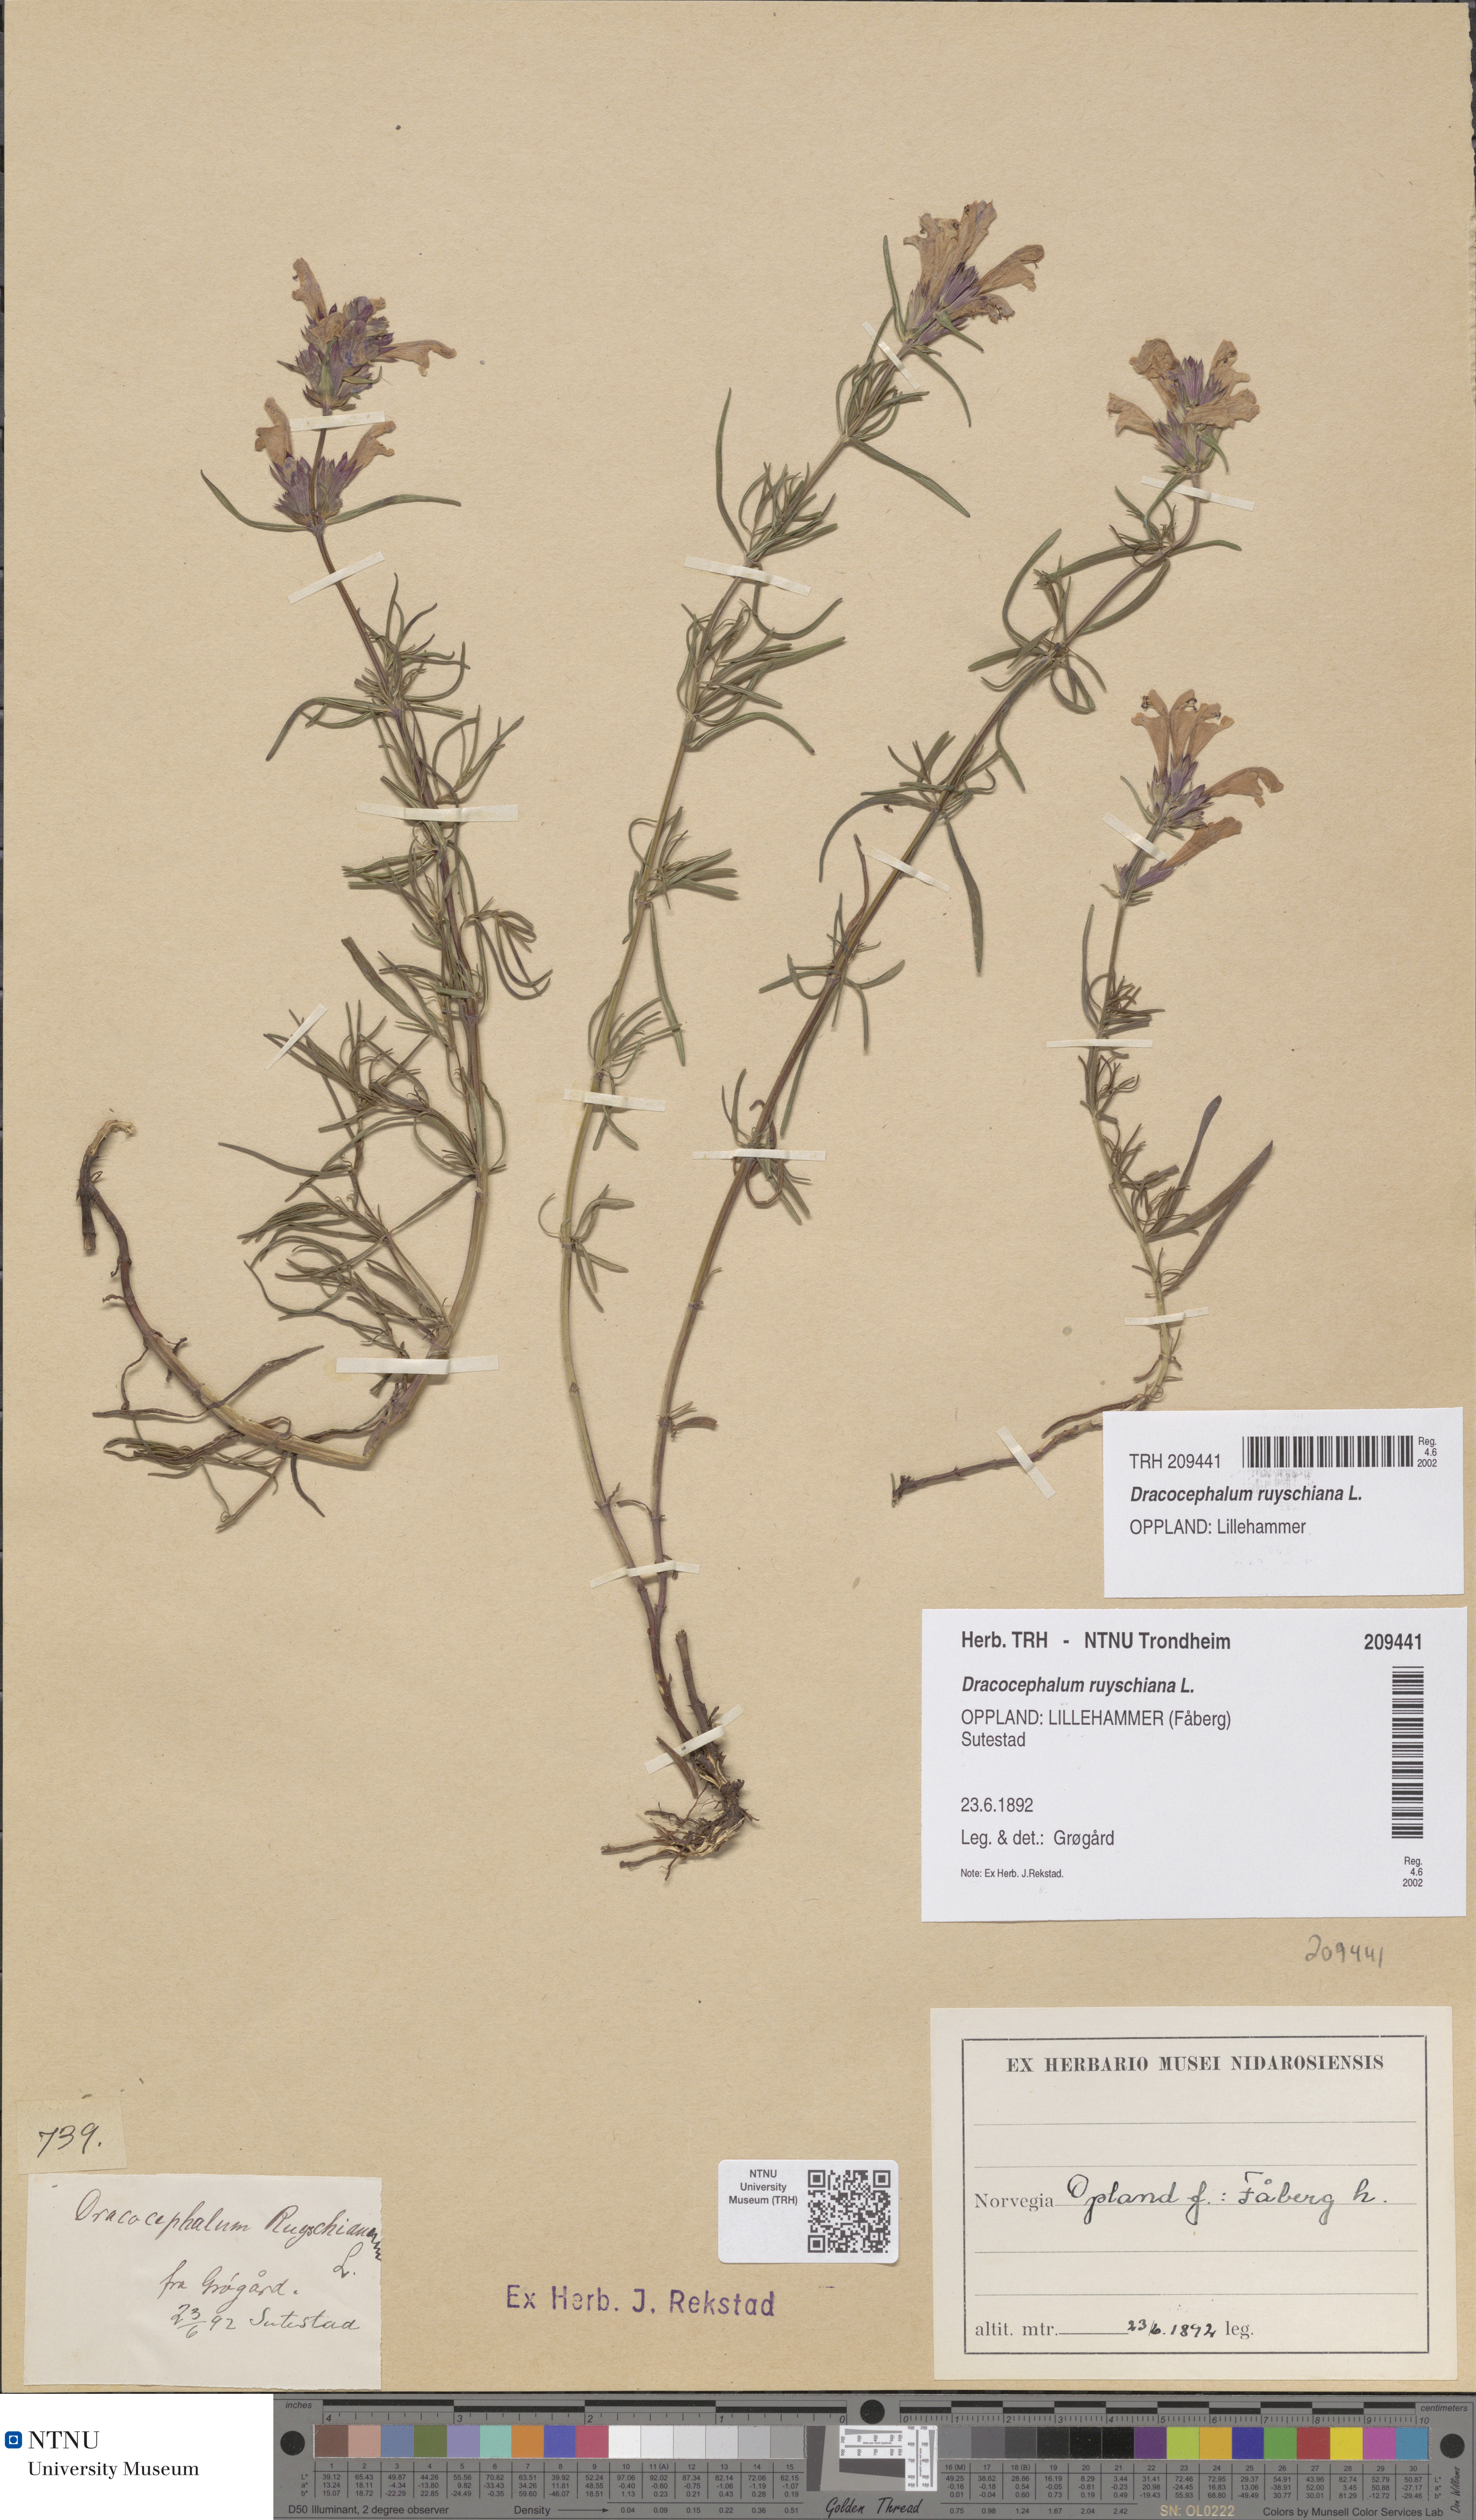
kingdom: Plantae
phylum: Tracheophyta
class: Magnoliopsida
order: Lamiales
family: Lamiaceae
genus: Dracocephalum
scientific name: Dracocephalum ruyschiana
